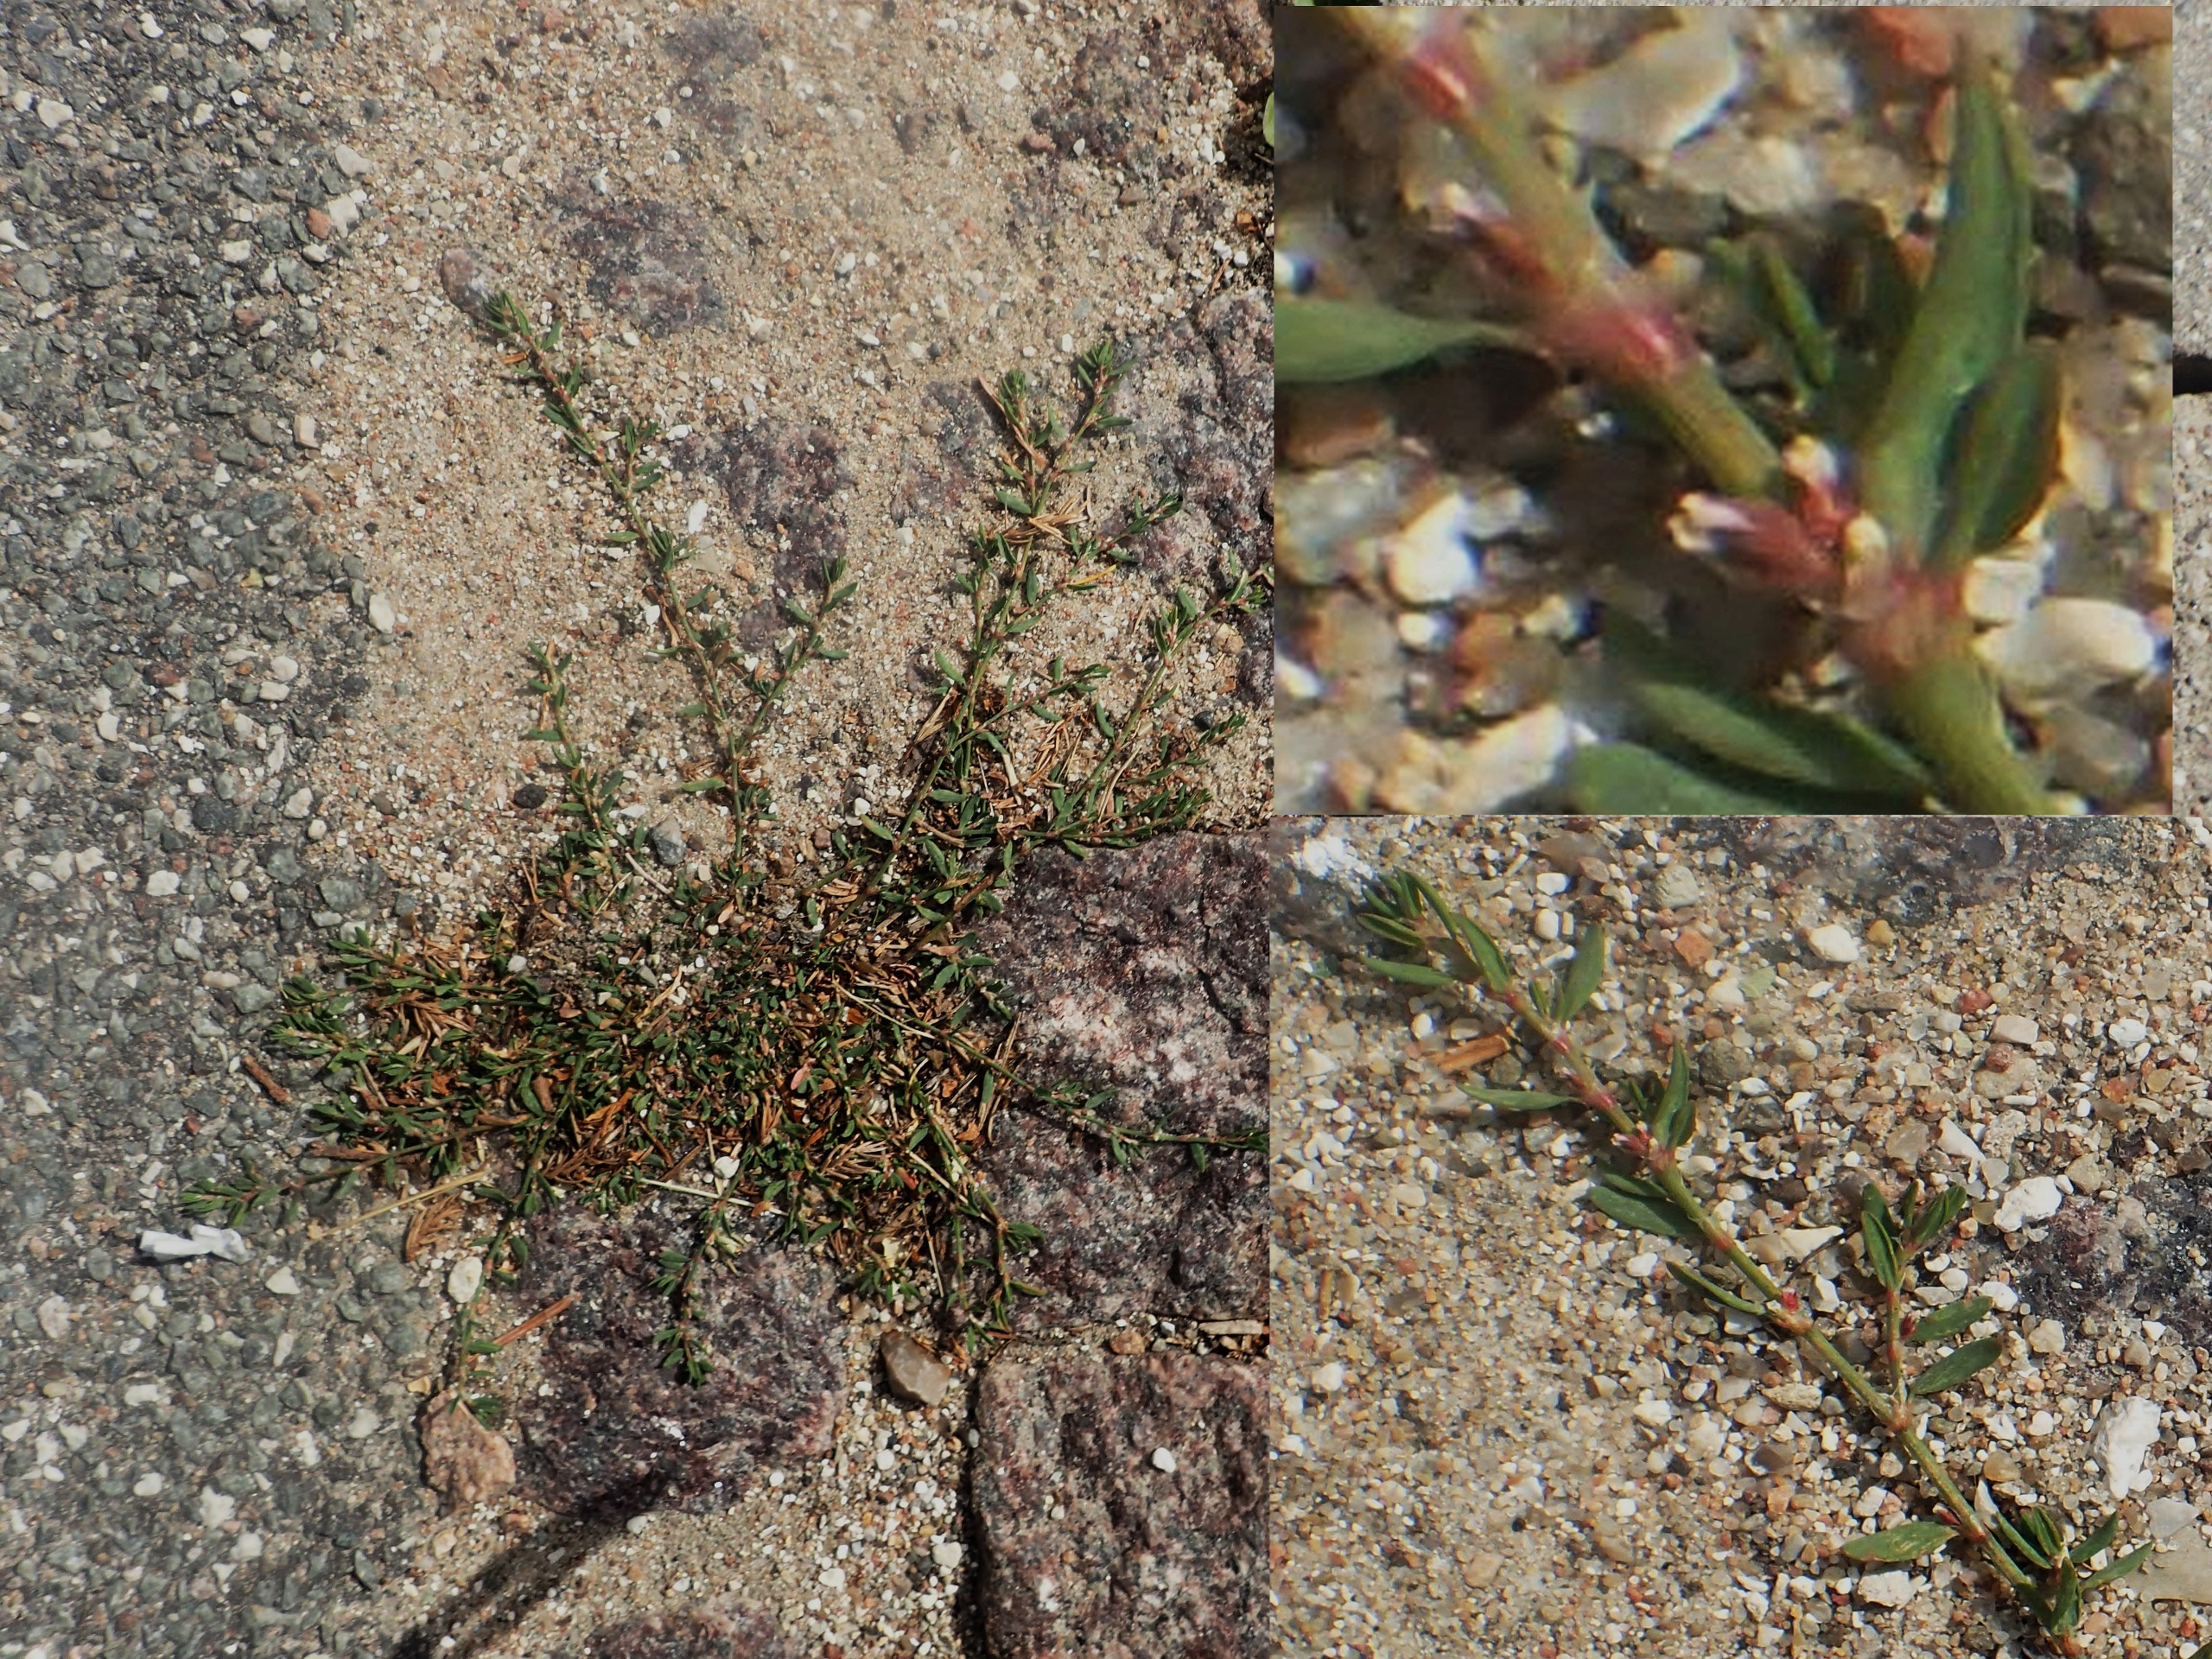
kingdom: Plantae
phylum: Tracheophyta
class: Magnoliopsida
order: Caryophyllales
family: Polygonaceae
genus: Polygonum
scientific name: Polygonum arenastrum
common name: Liggende vej-pileurt
